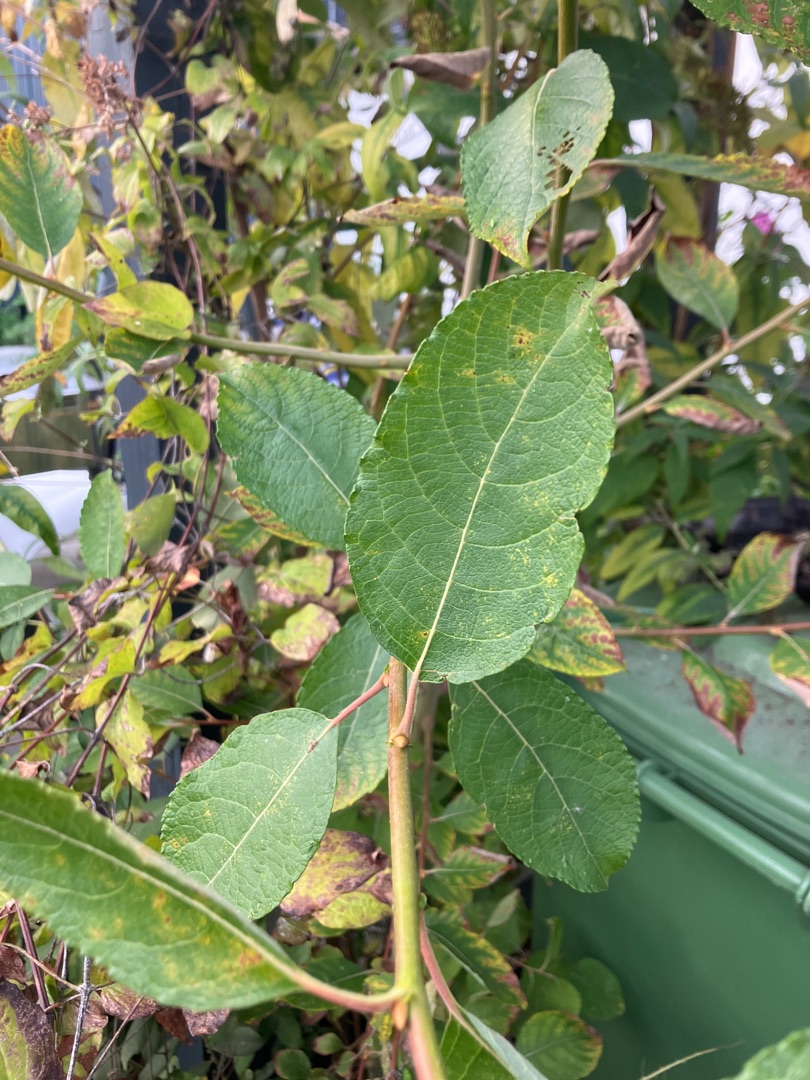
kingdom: Plantae
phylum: Tracheophyta
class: Magnoliopsida
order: Malpighiales
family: Salicaceae
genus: Salix
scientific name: Salix caprea
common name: Selje-pil
